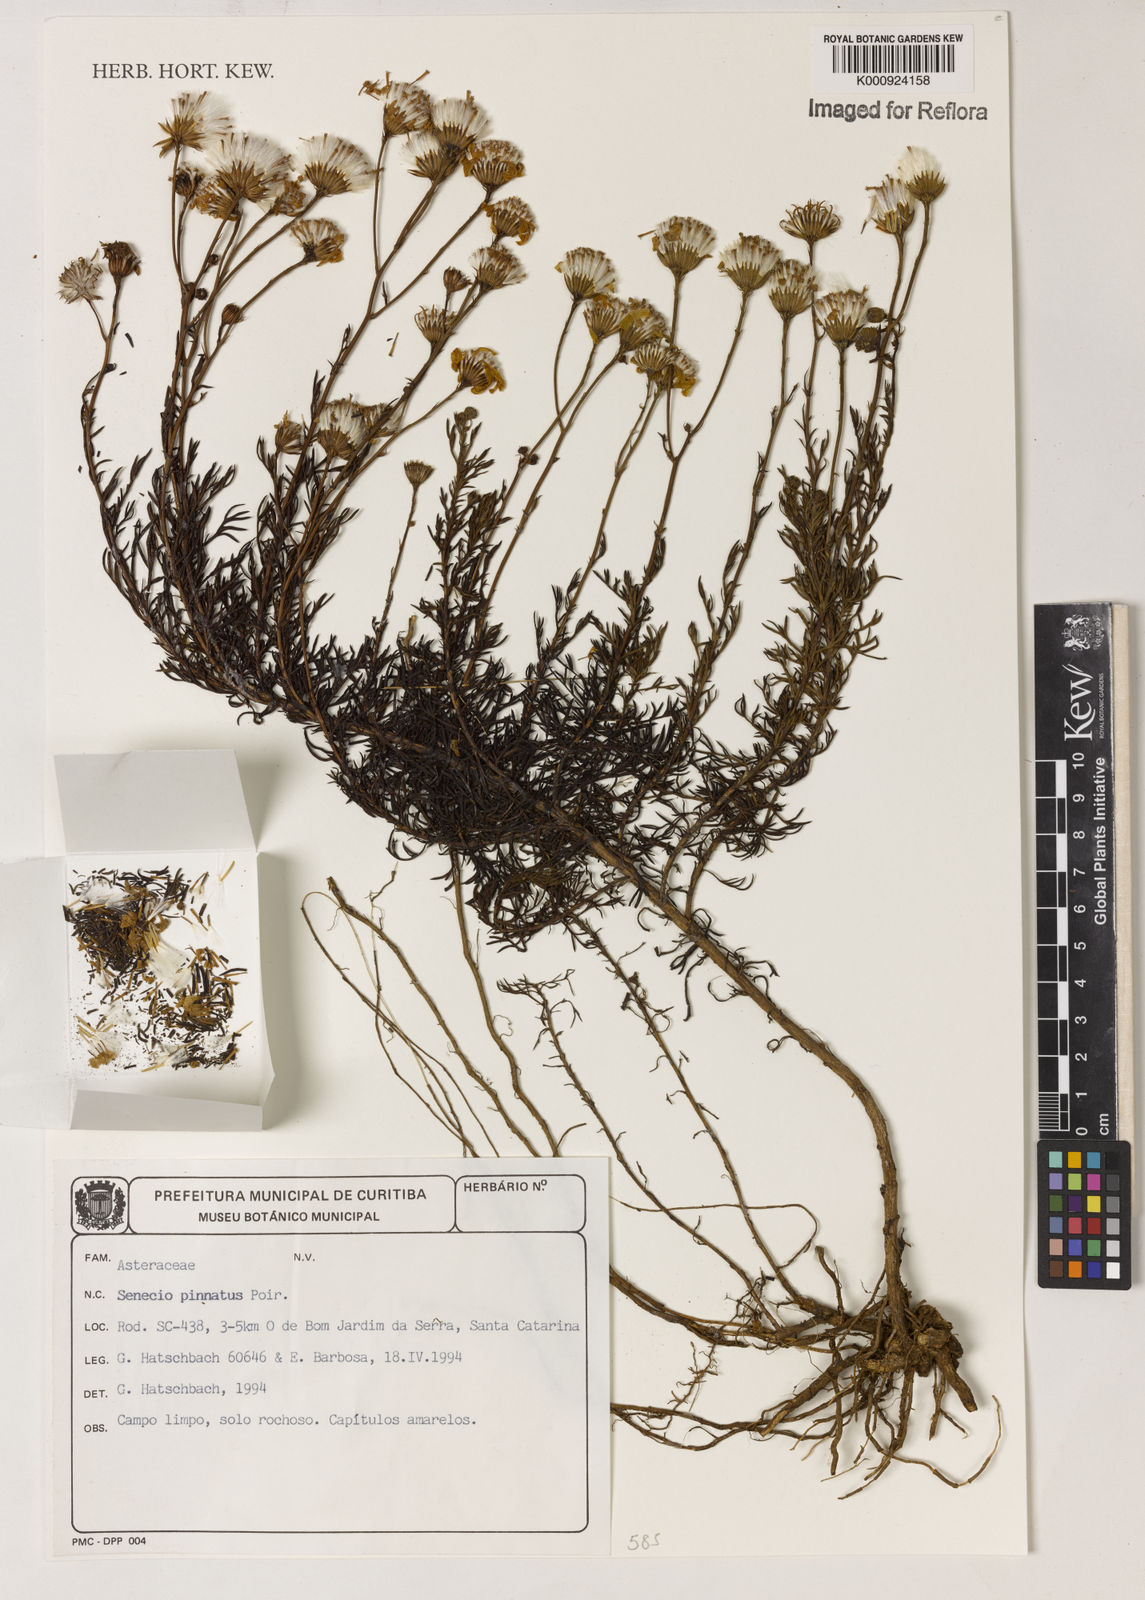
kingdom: Plantae
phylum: Tracheophyta
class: Magnoliopsida
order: Asterales
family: Asteraceae
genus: Senecio
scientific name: Senecio pinnatus
